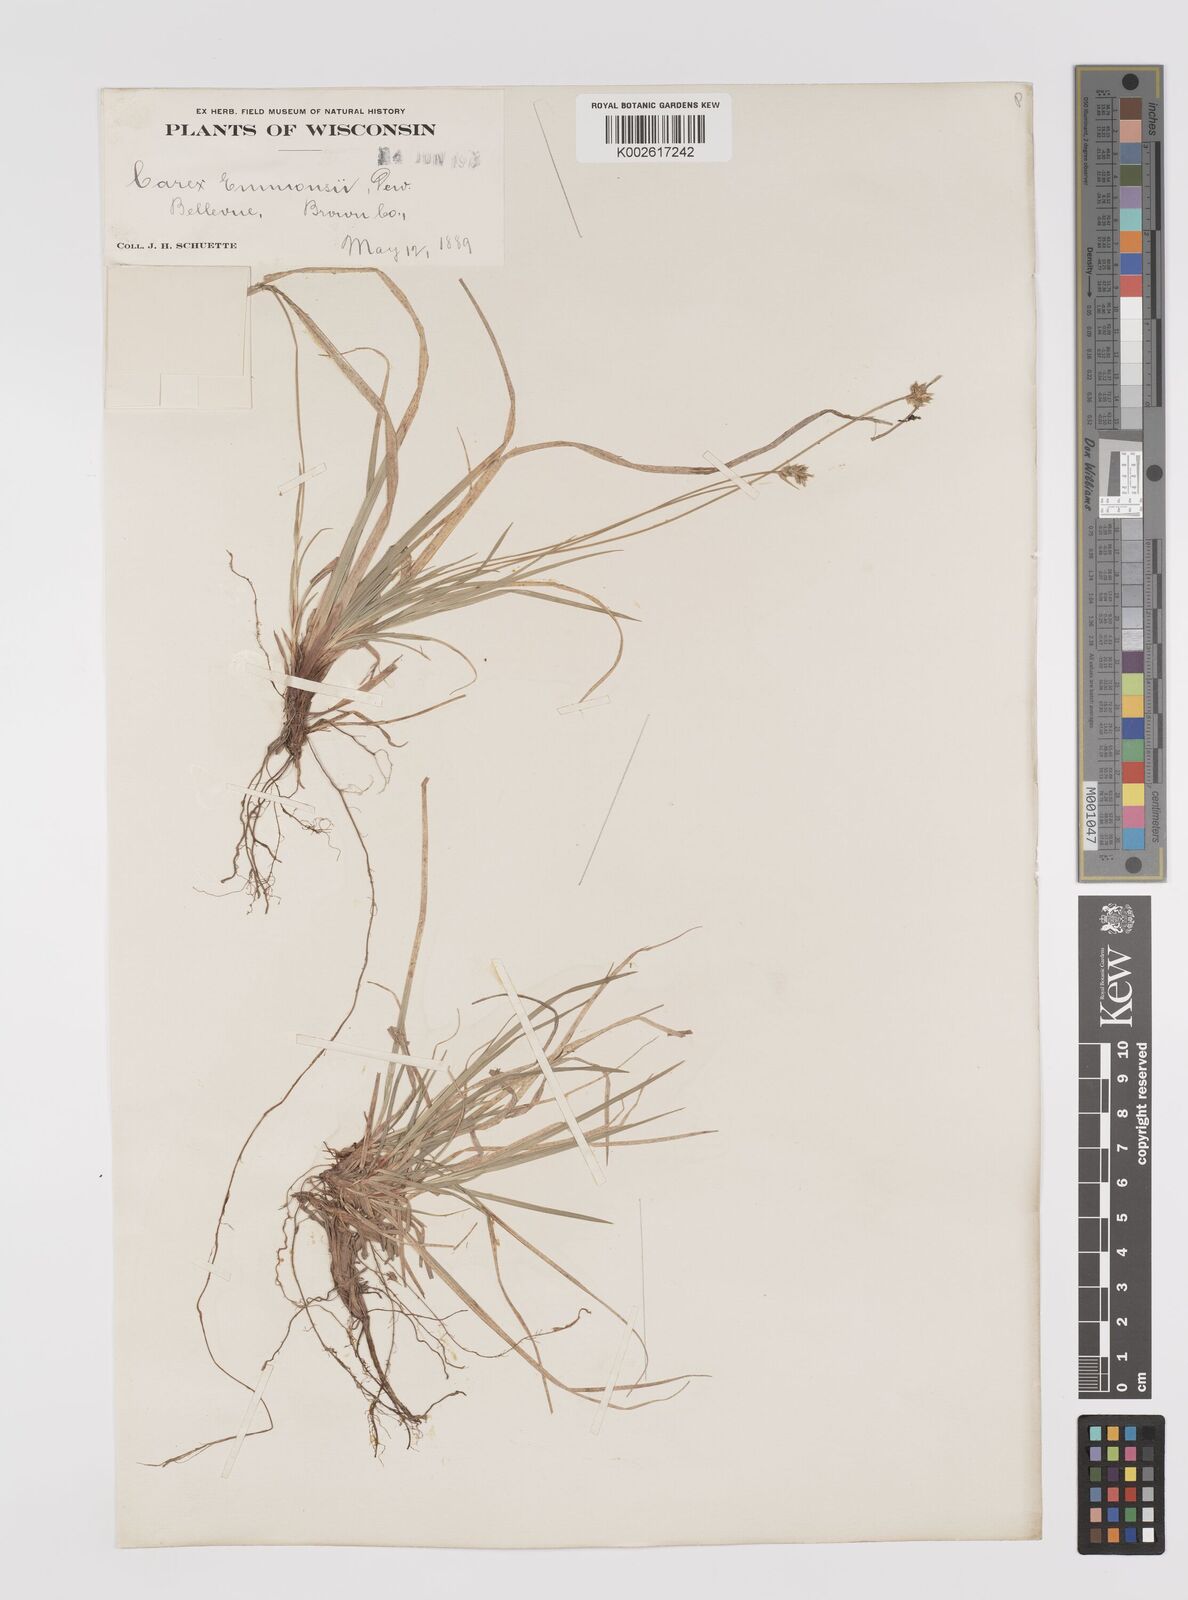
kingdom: Plantae
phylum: Tracheophyta
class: Liliopsida
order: Poales
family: Cyperaceae
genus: Carex
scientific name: Carex albicans
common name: Bellow-beaked sedge
